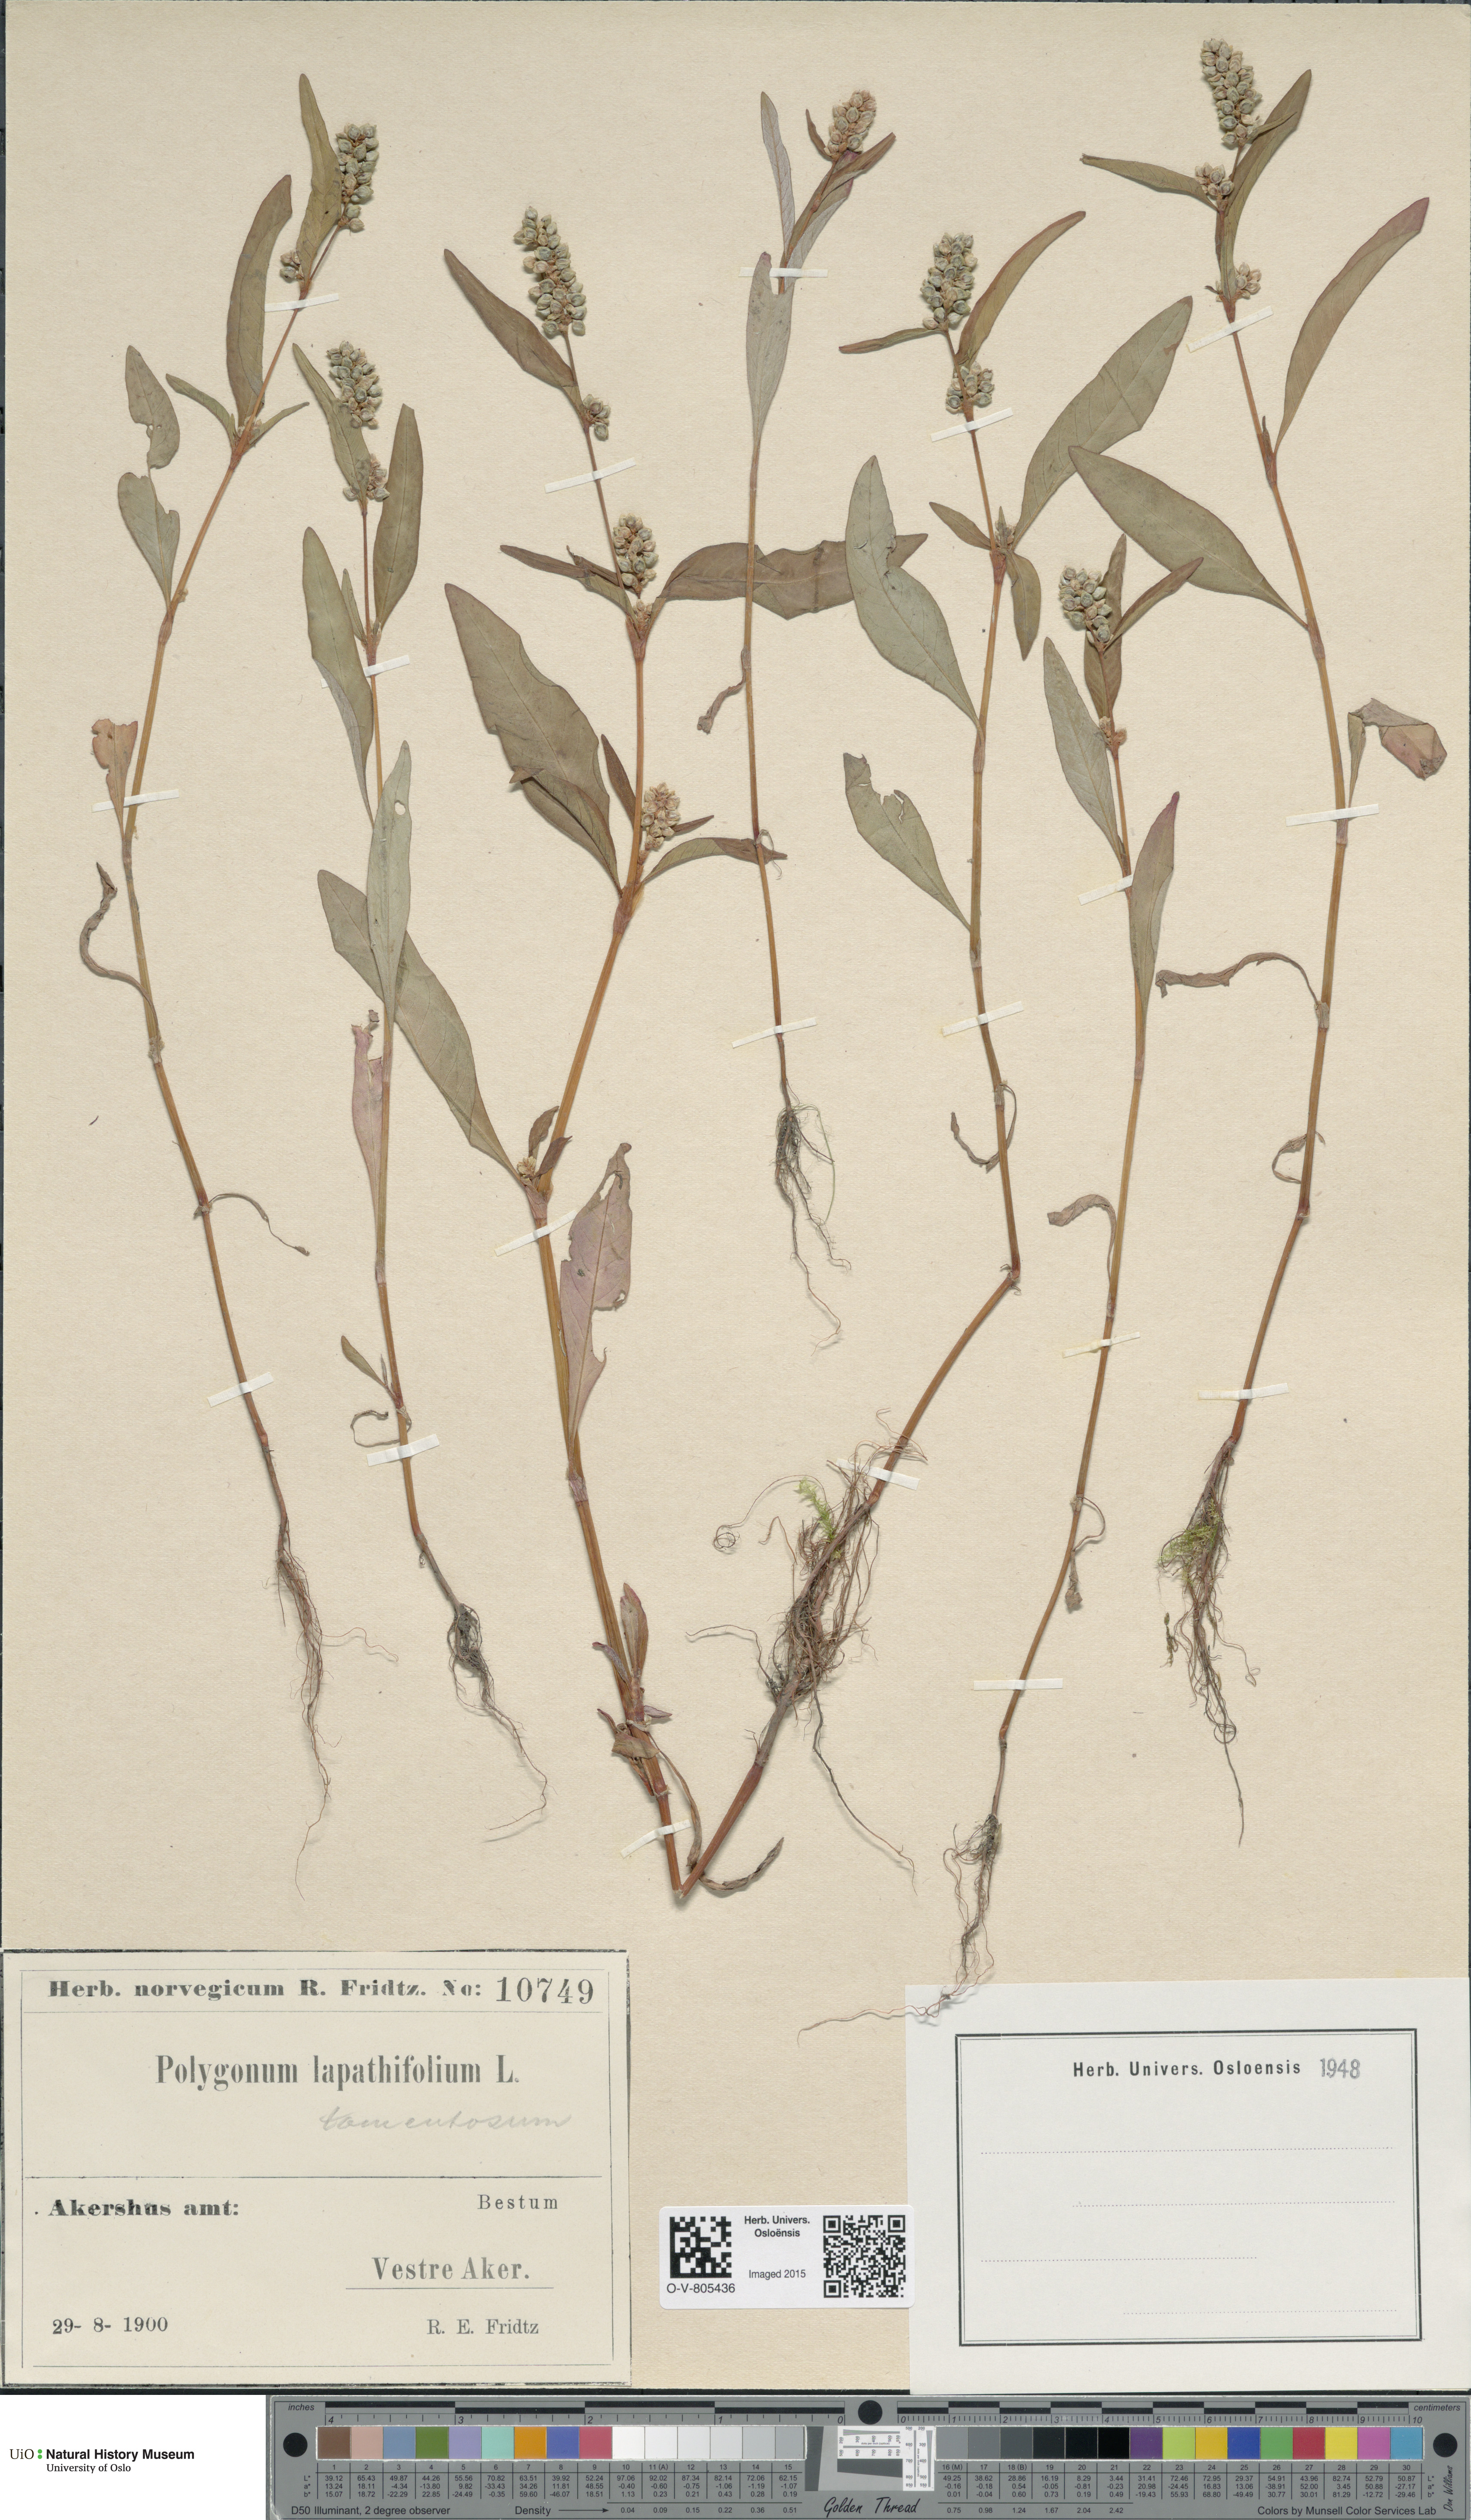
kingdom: Plantae
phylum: Tracheophyta
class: Magnoliopsida
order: Caryophyllales
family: Polygonaceae
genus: Persicaria
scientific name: Persicaria lapathifolia
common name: Curlytop knotweed
